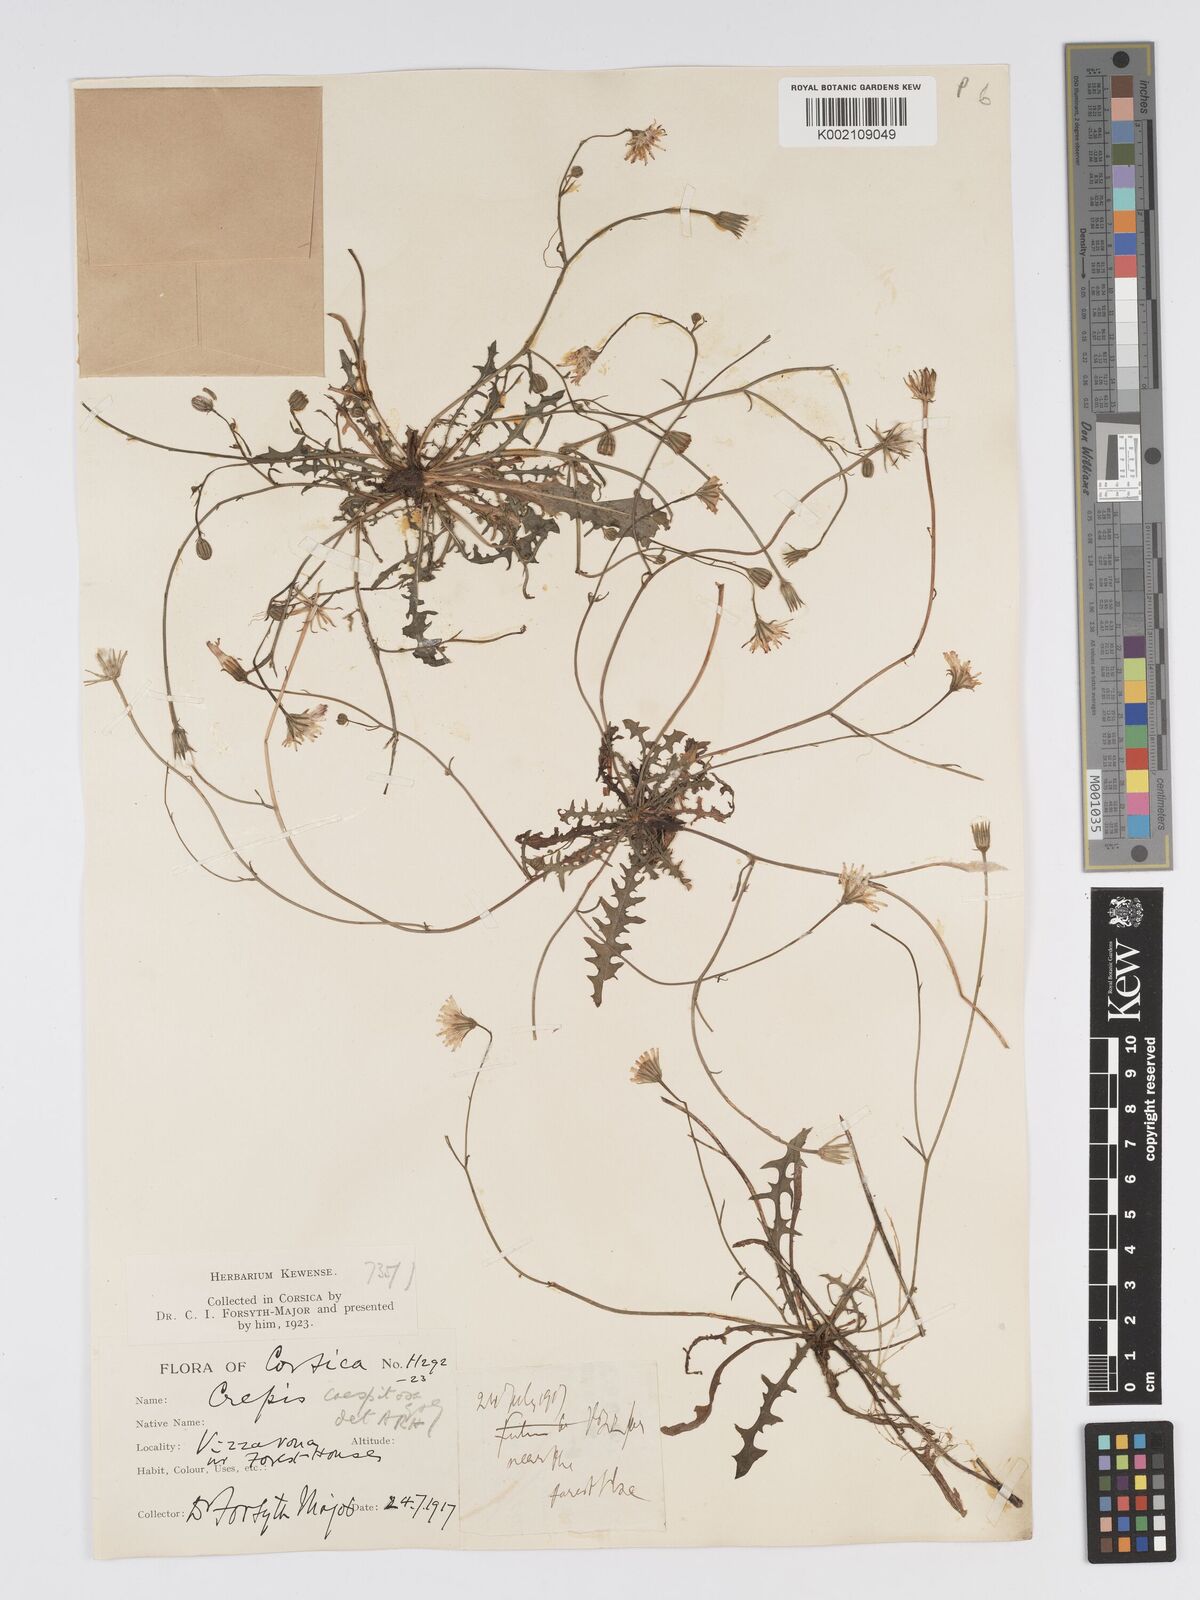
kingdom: Plantae
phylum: Tracheophyta
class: Magnoliopsida
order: Asterales
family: Asteraceae
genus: Crepis
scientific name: Crepis bellidifolia
